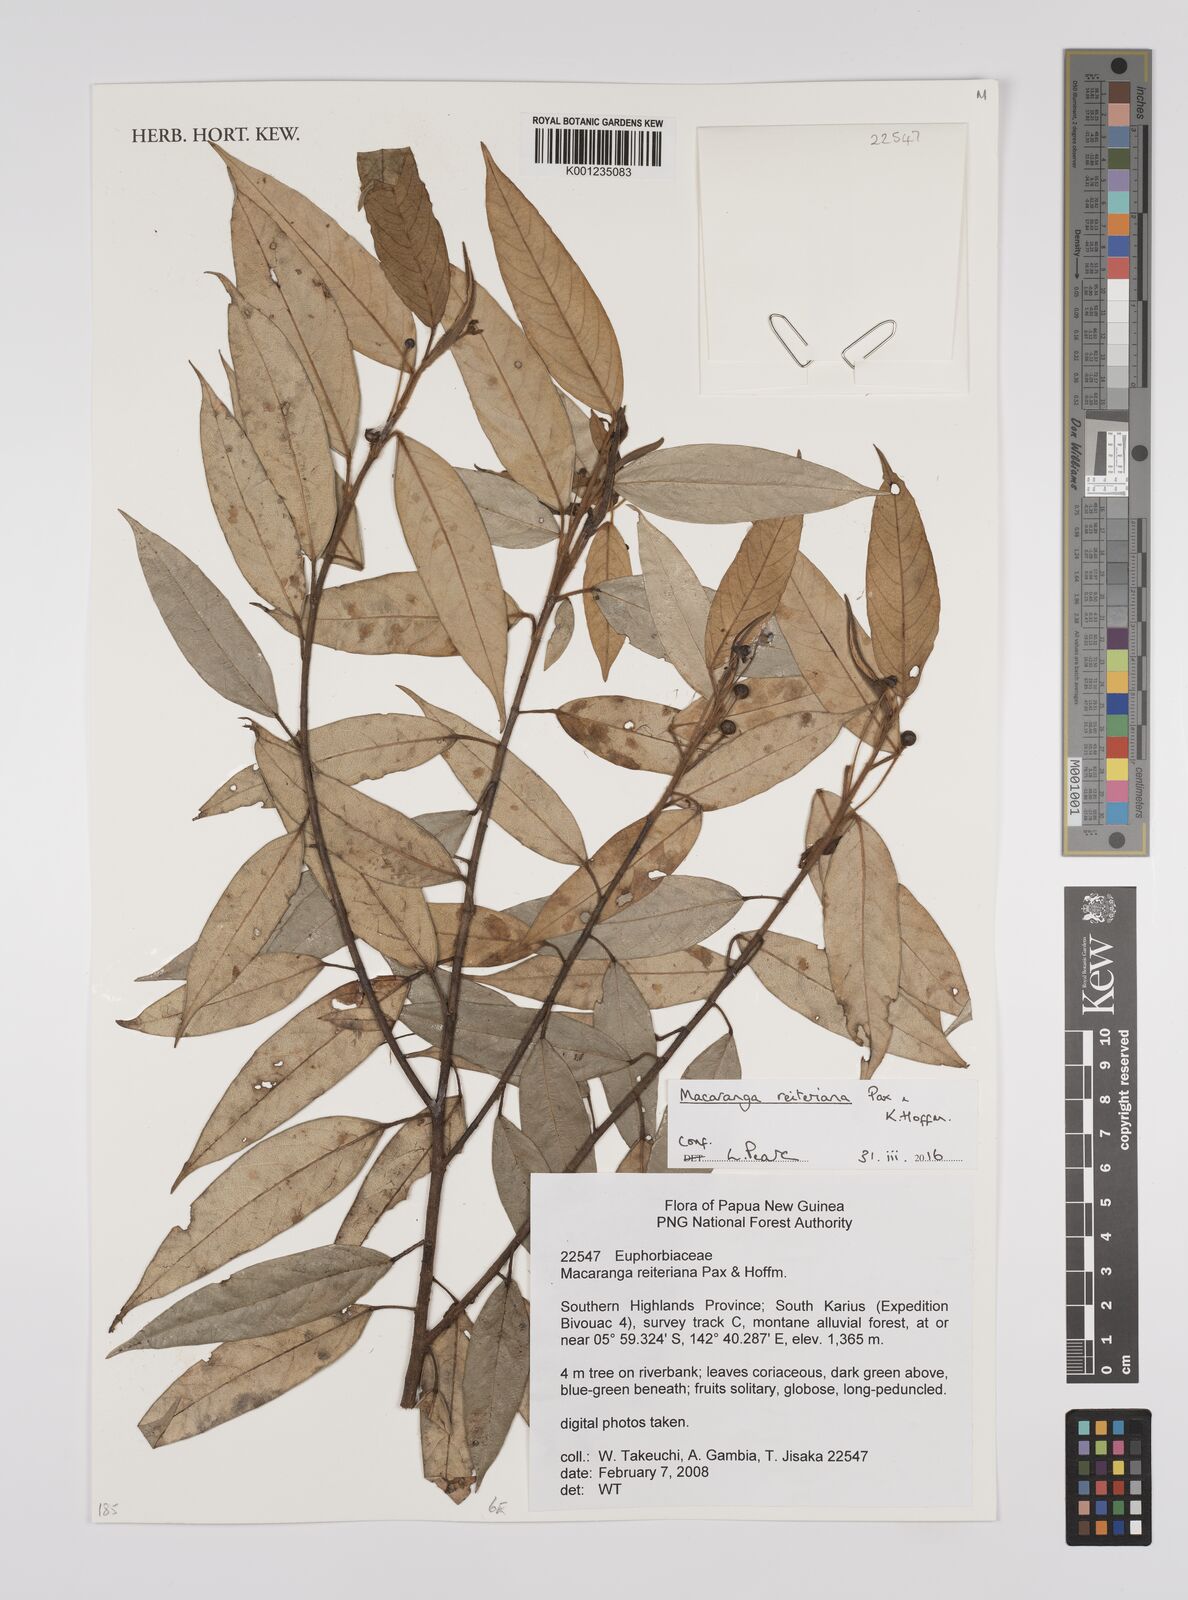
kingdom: Plantae
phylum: Tracheophyta
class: Magnoliopsida
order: Malpighiales
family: Euphorbiaceae
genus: Macaranga
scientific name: Macaranga reiteriana
